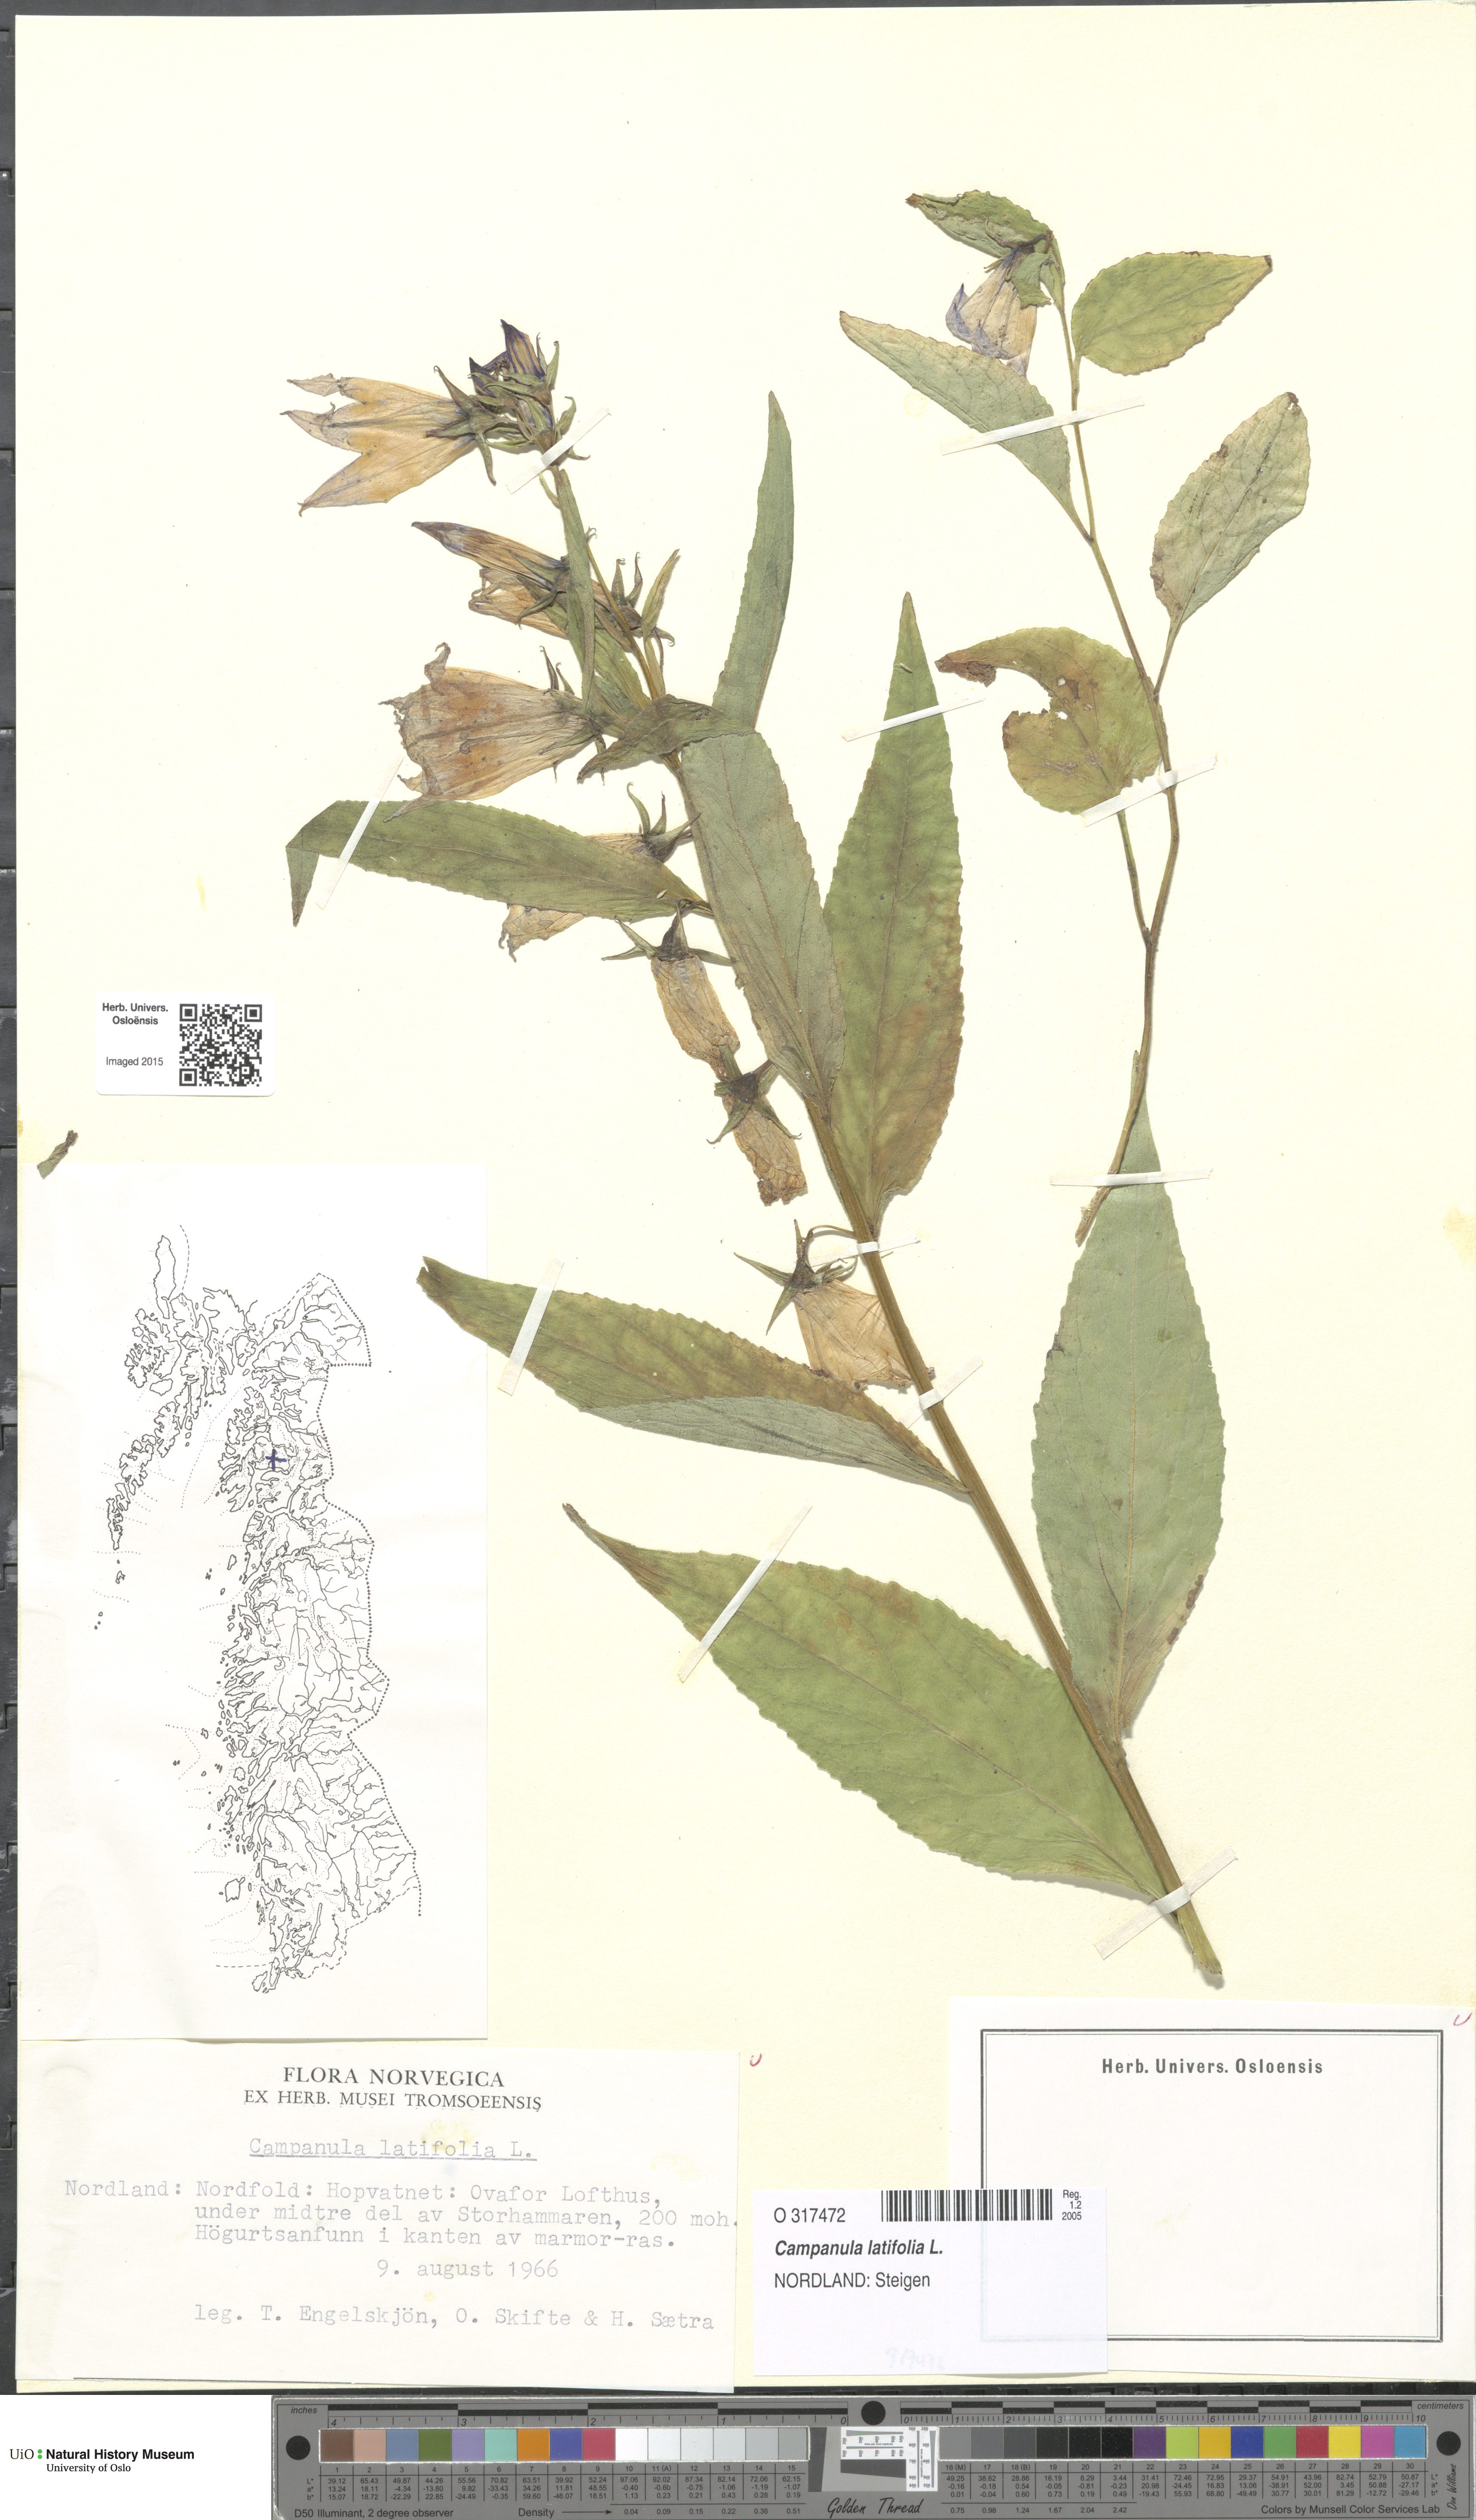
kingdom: Plantae
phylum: Tracheophyta
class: Magnoliopsida
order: Asterales
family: Campanulaceae
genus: Campanula
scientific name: Campanula latifolia
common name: Giant bellflower
